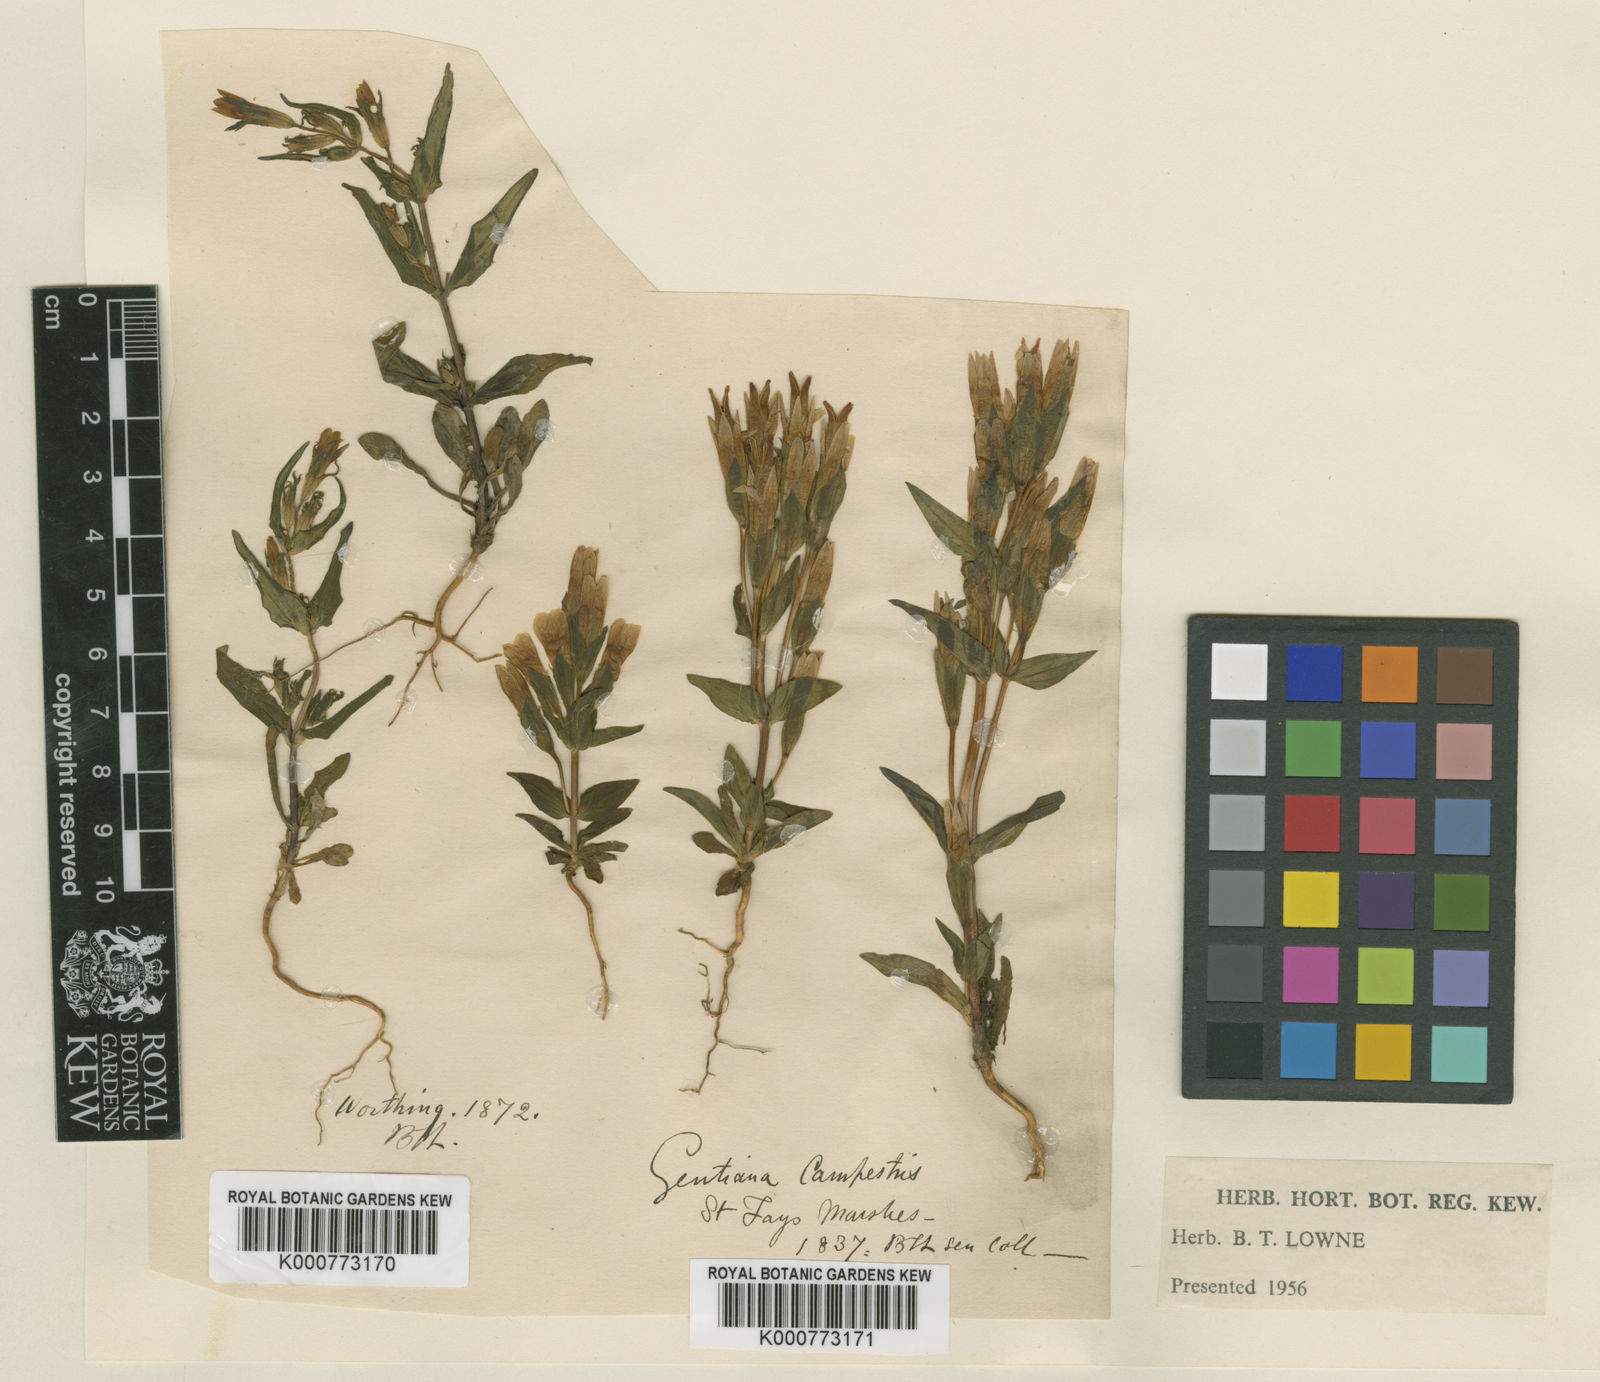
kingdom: Plantae
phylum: Tracheophyta
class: Magnoliopsida
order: Gentianales
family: Gentianaceae
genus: Gentianella
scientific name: Gentianella
